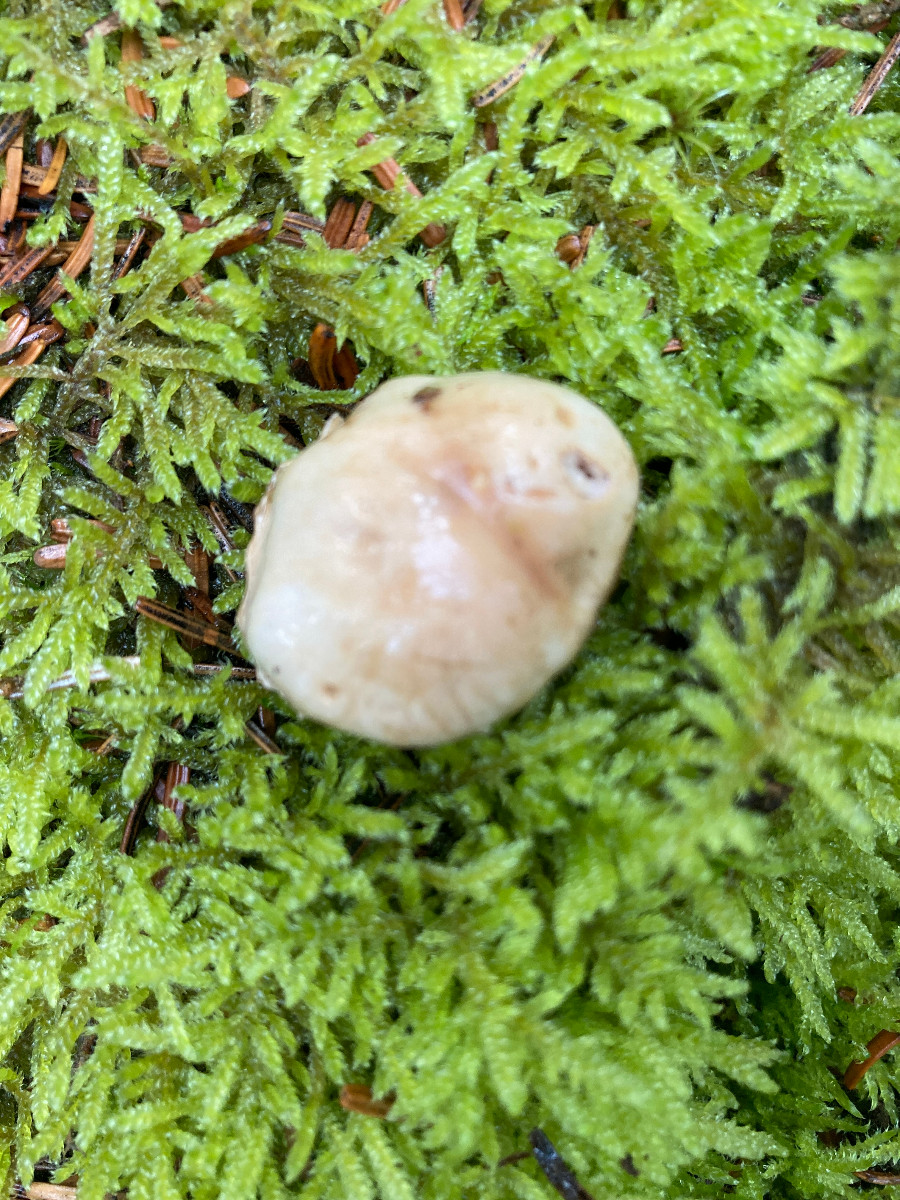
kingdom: Fungi
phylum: Basidiomycota
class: Agaricomycetes
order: Agaricales
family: Cortinariaceae
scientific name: Cortinariaceae
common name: slørhatfamilien
